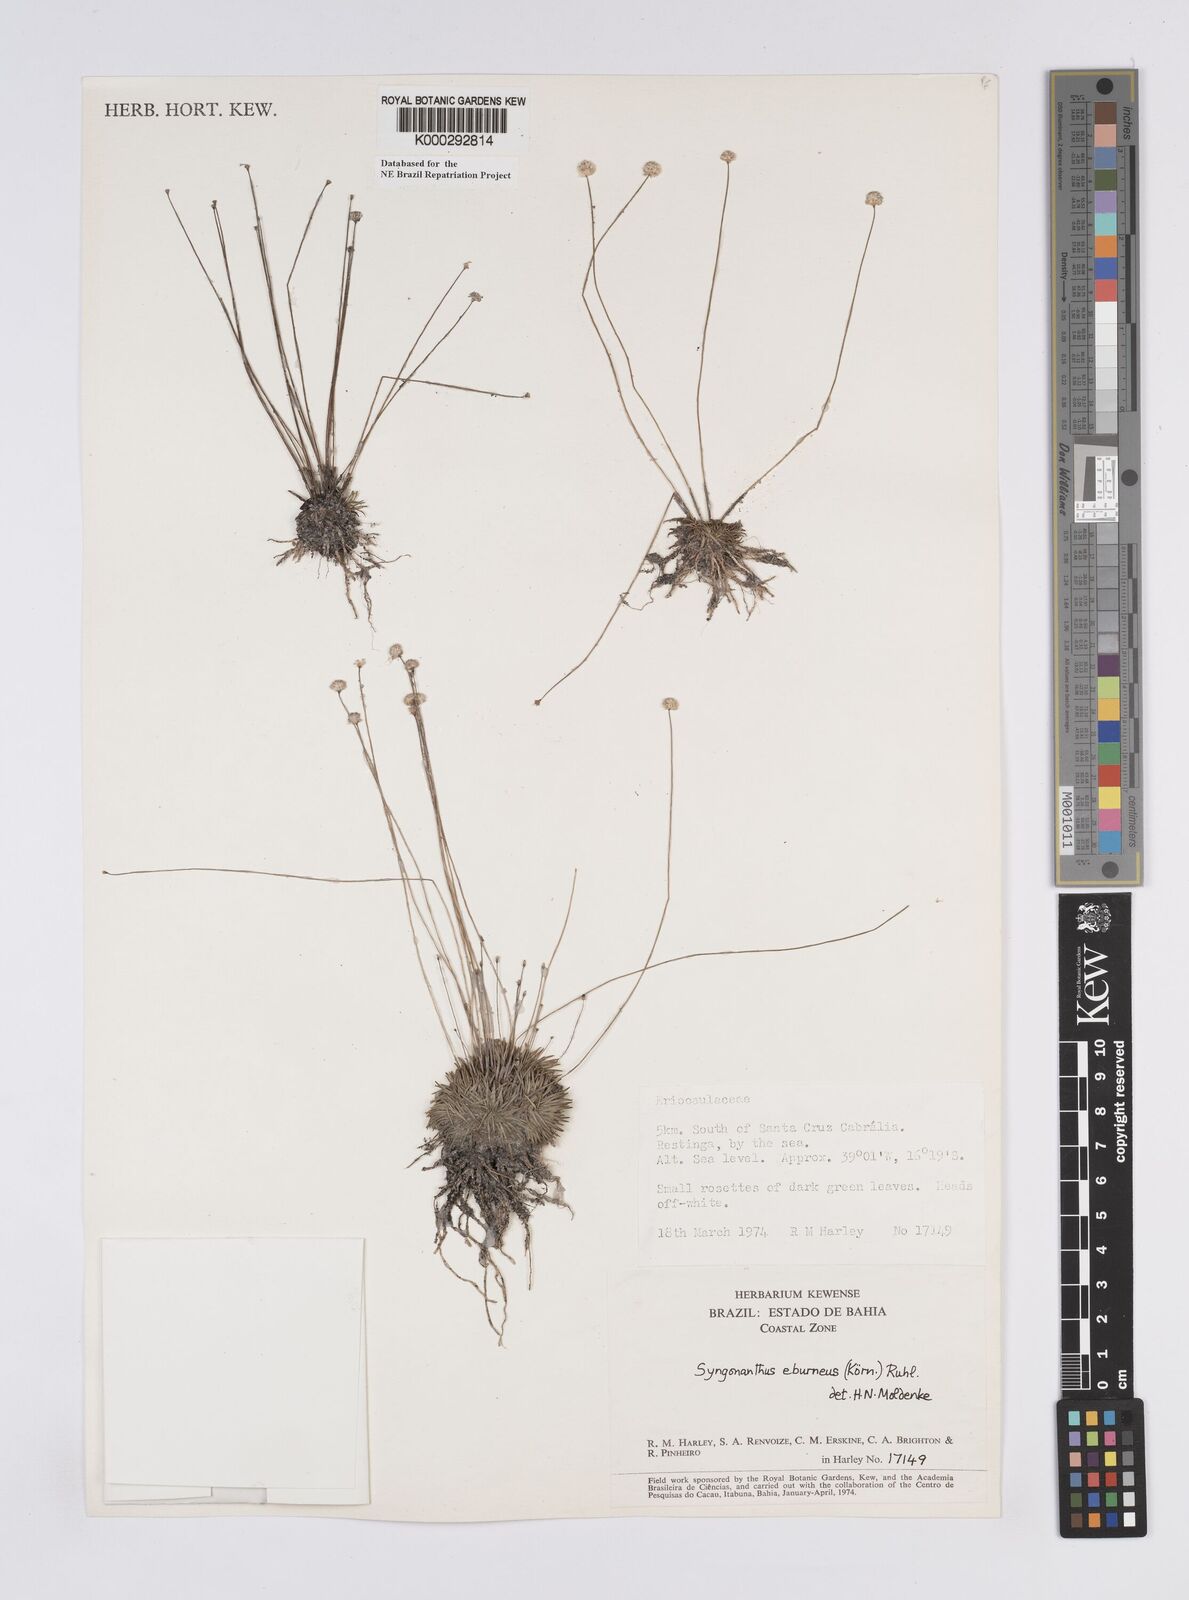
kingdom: Plantae
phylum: Tracheophyta
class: Liliopsida
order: Poales
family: Eriocaulaceae
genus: Syngonanthus
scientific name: Syngonanthus
